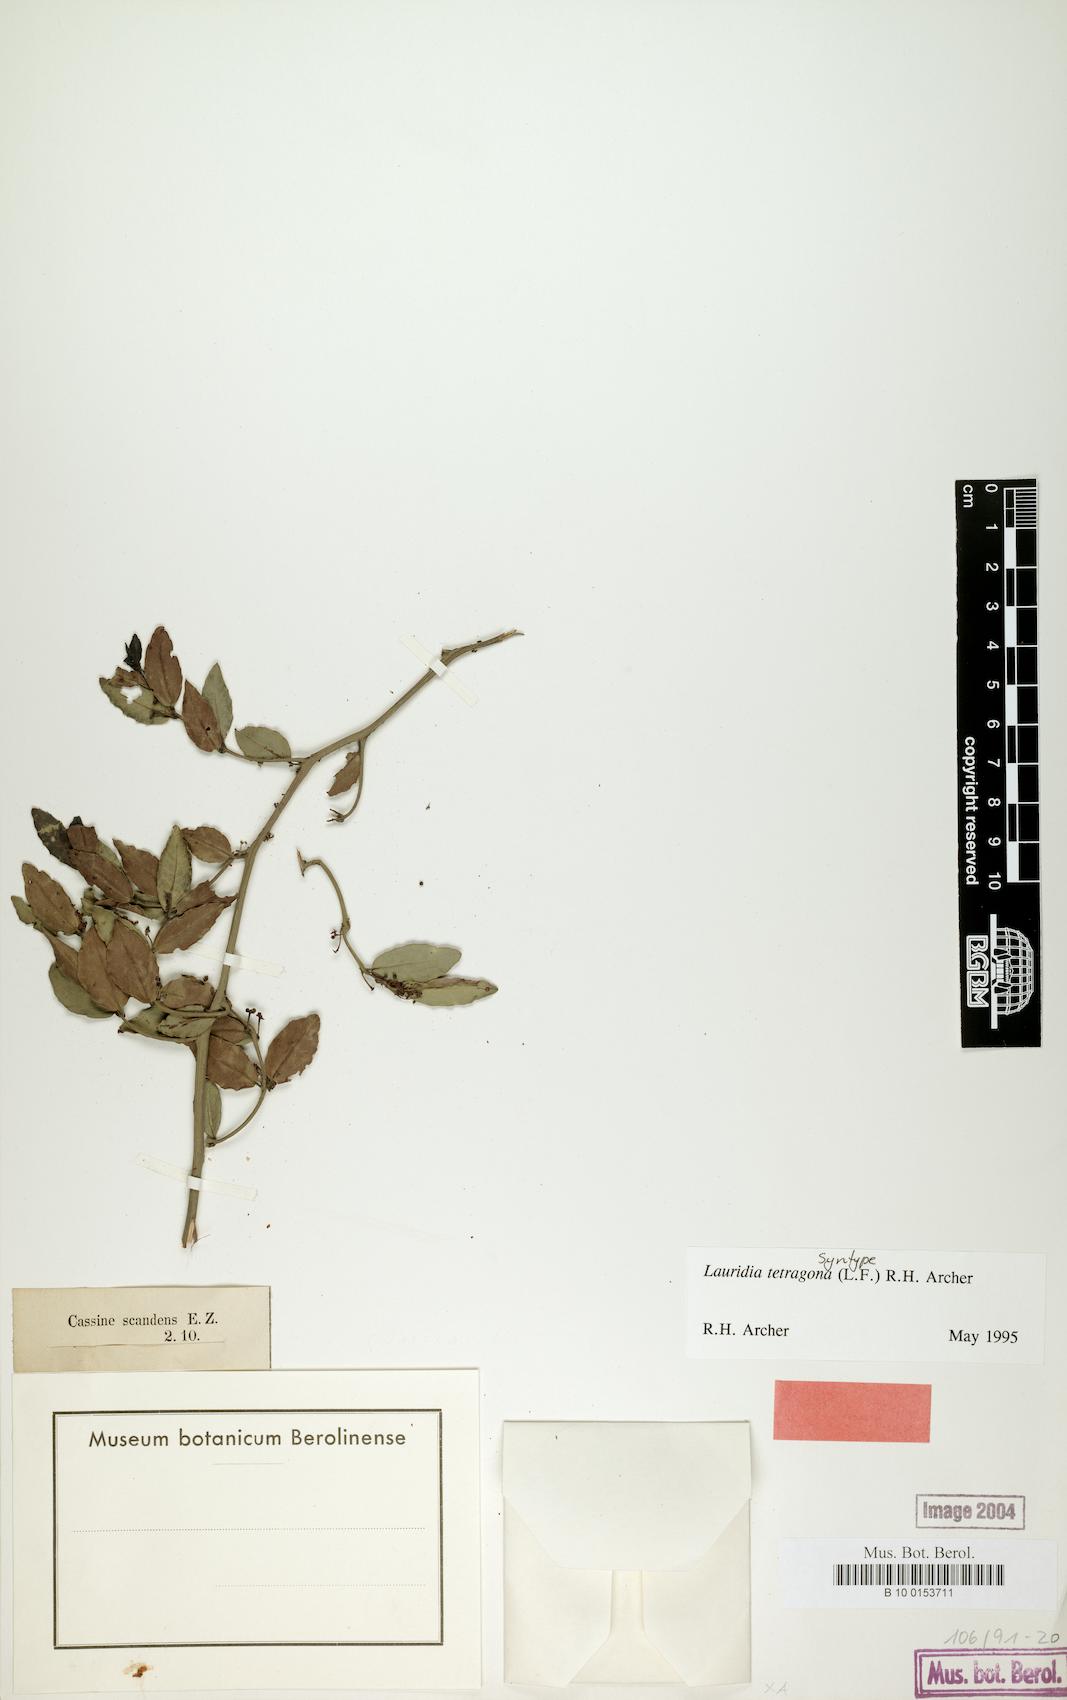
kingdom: Plantae
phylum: Tracheophyta
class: Magnoliopsida
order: Celastrales
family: Celastraceae
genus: Lauridia
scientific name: Lauridia tetragona
